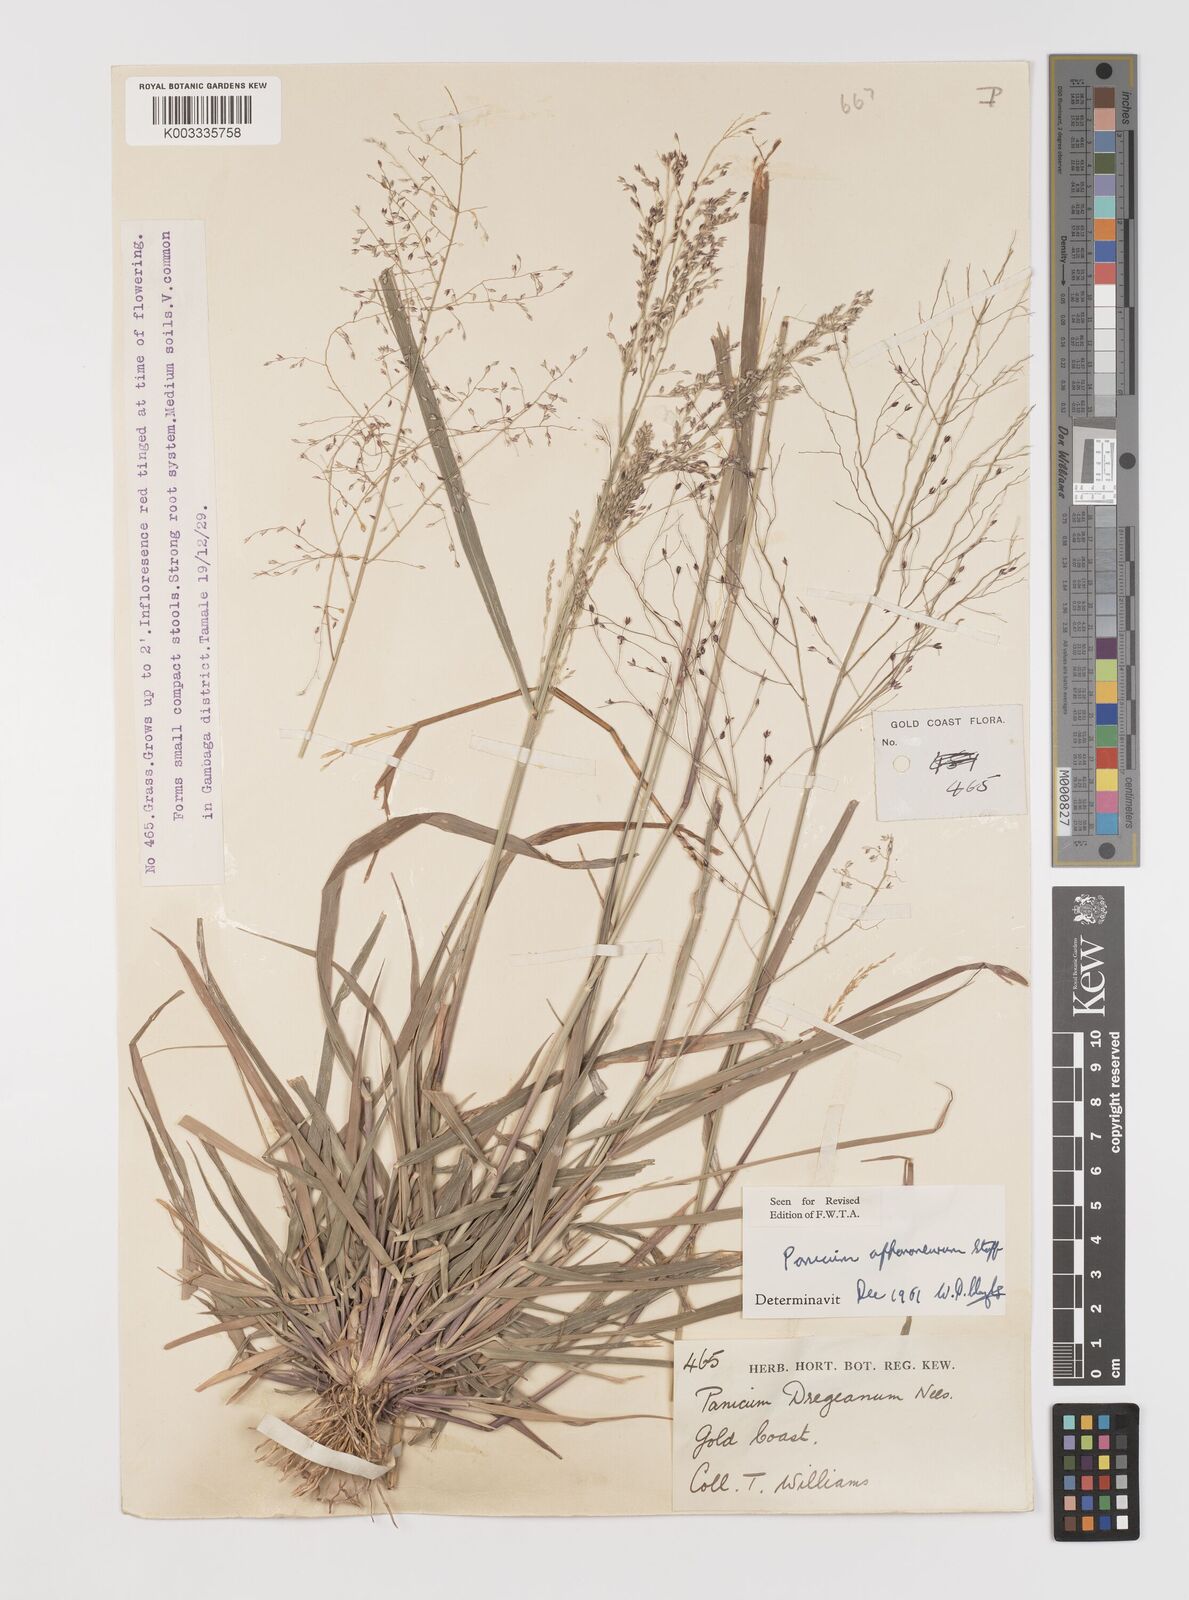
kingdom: Plantae
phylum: Tracheophyta
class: Liliopsida
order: Poales
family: Poaceae
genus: Panicum
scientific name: Panicum fluviicola
